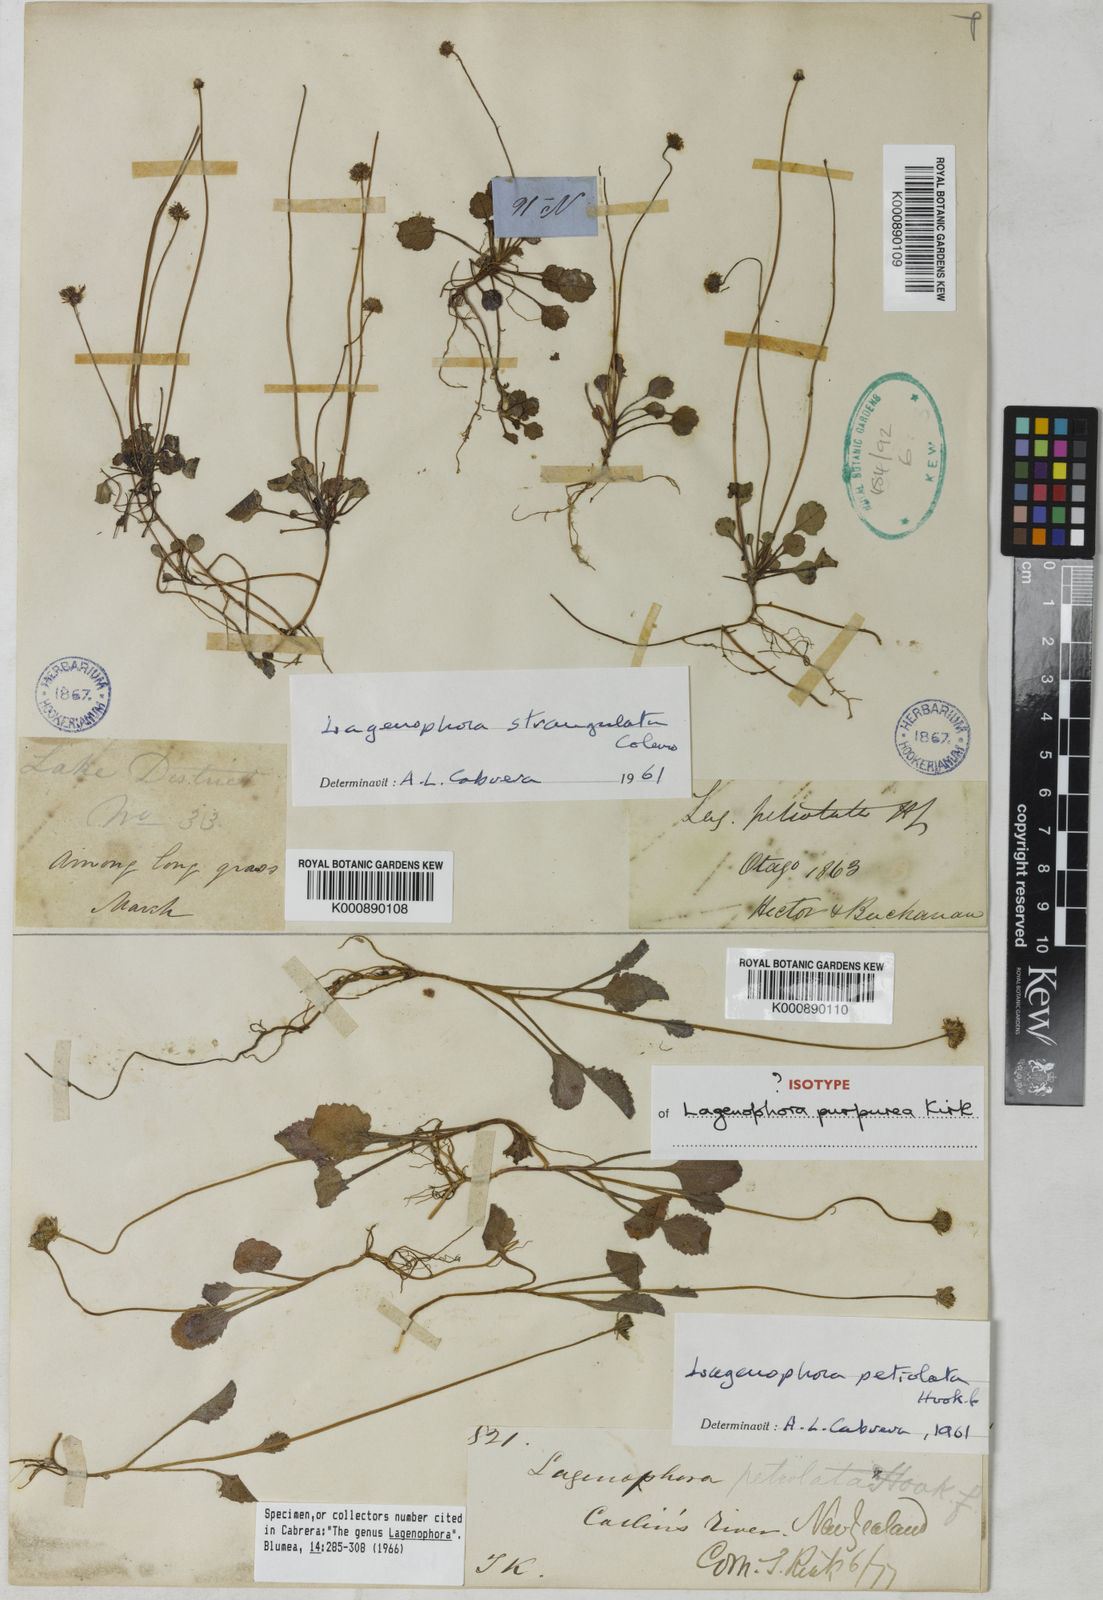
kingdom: Plantae
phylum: Tracheophyta
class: Magnoliopsida
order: Asterales
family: Asteraceae
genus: Lagenophora
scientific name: Lagenophora petiolata
